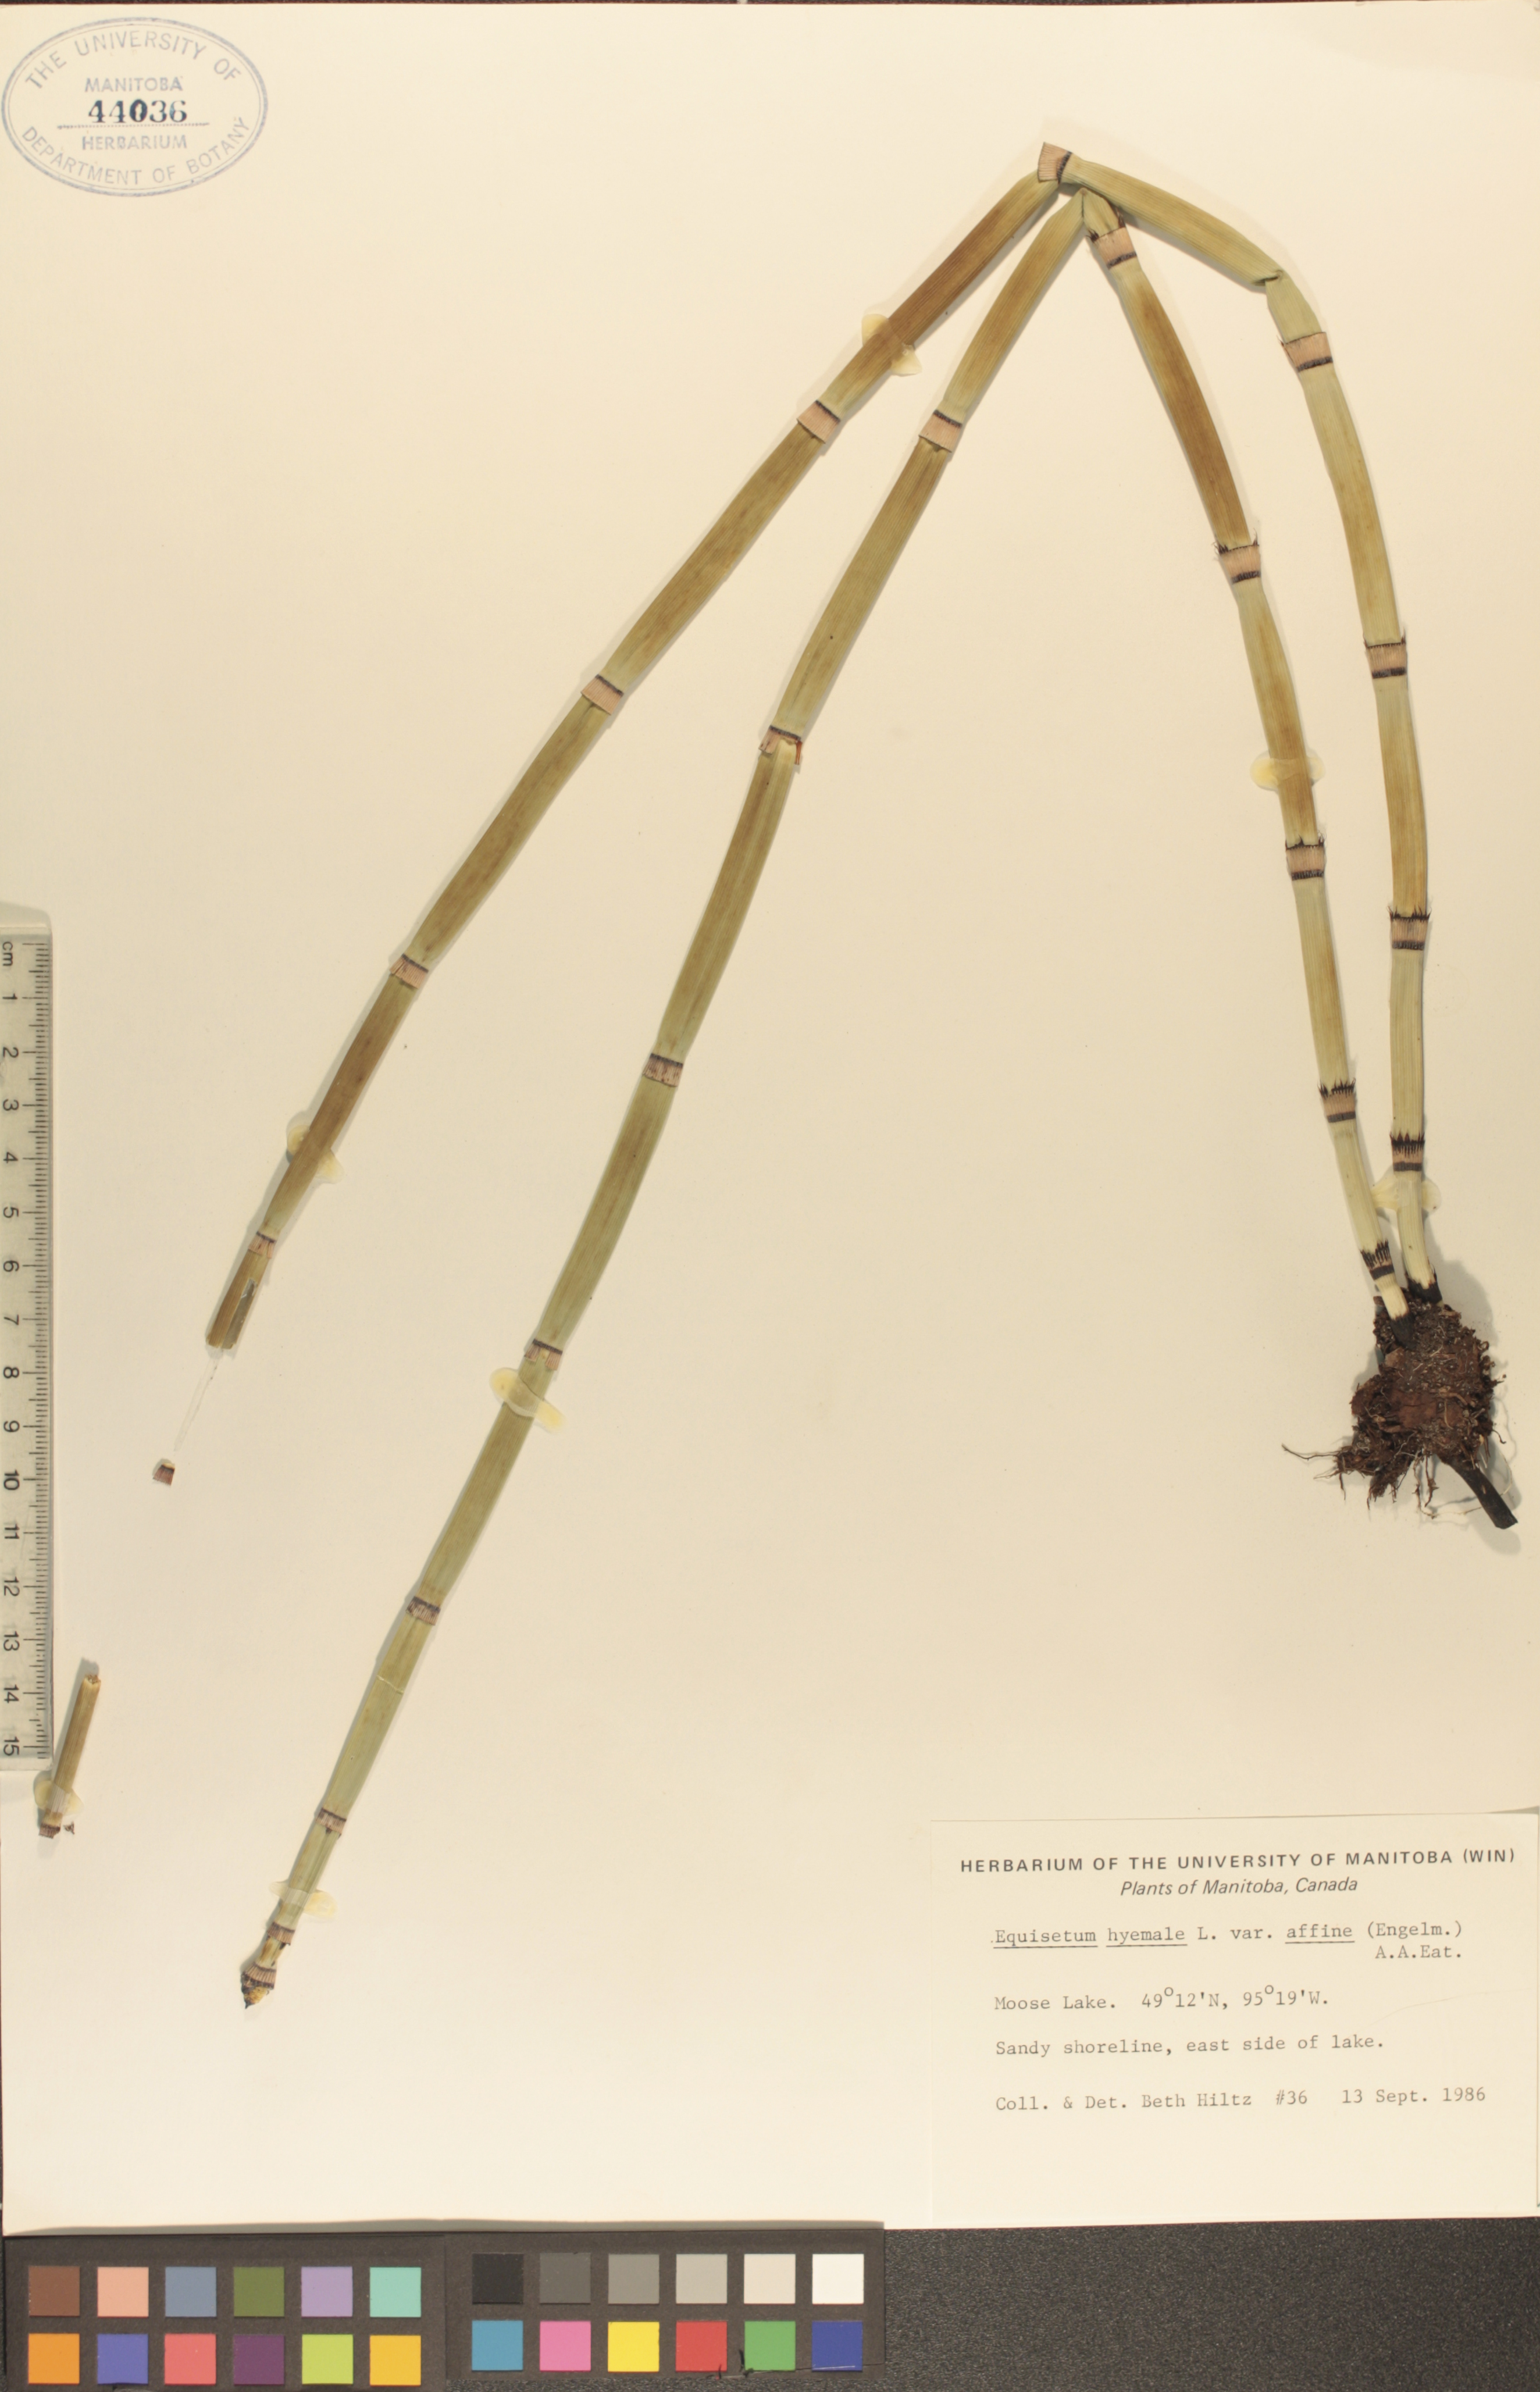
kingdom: Plantae
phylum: Tracheophyta
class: Polypodiopsida
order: Equisetales
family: Equisetaceae
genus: Equisetum
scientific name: Equisetum hyemale
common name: Rough horsetail
